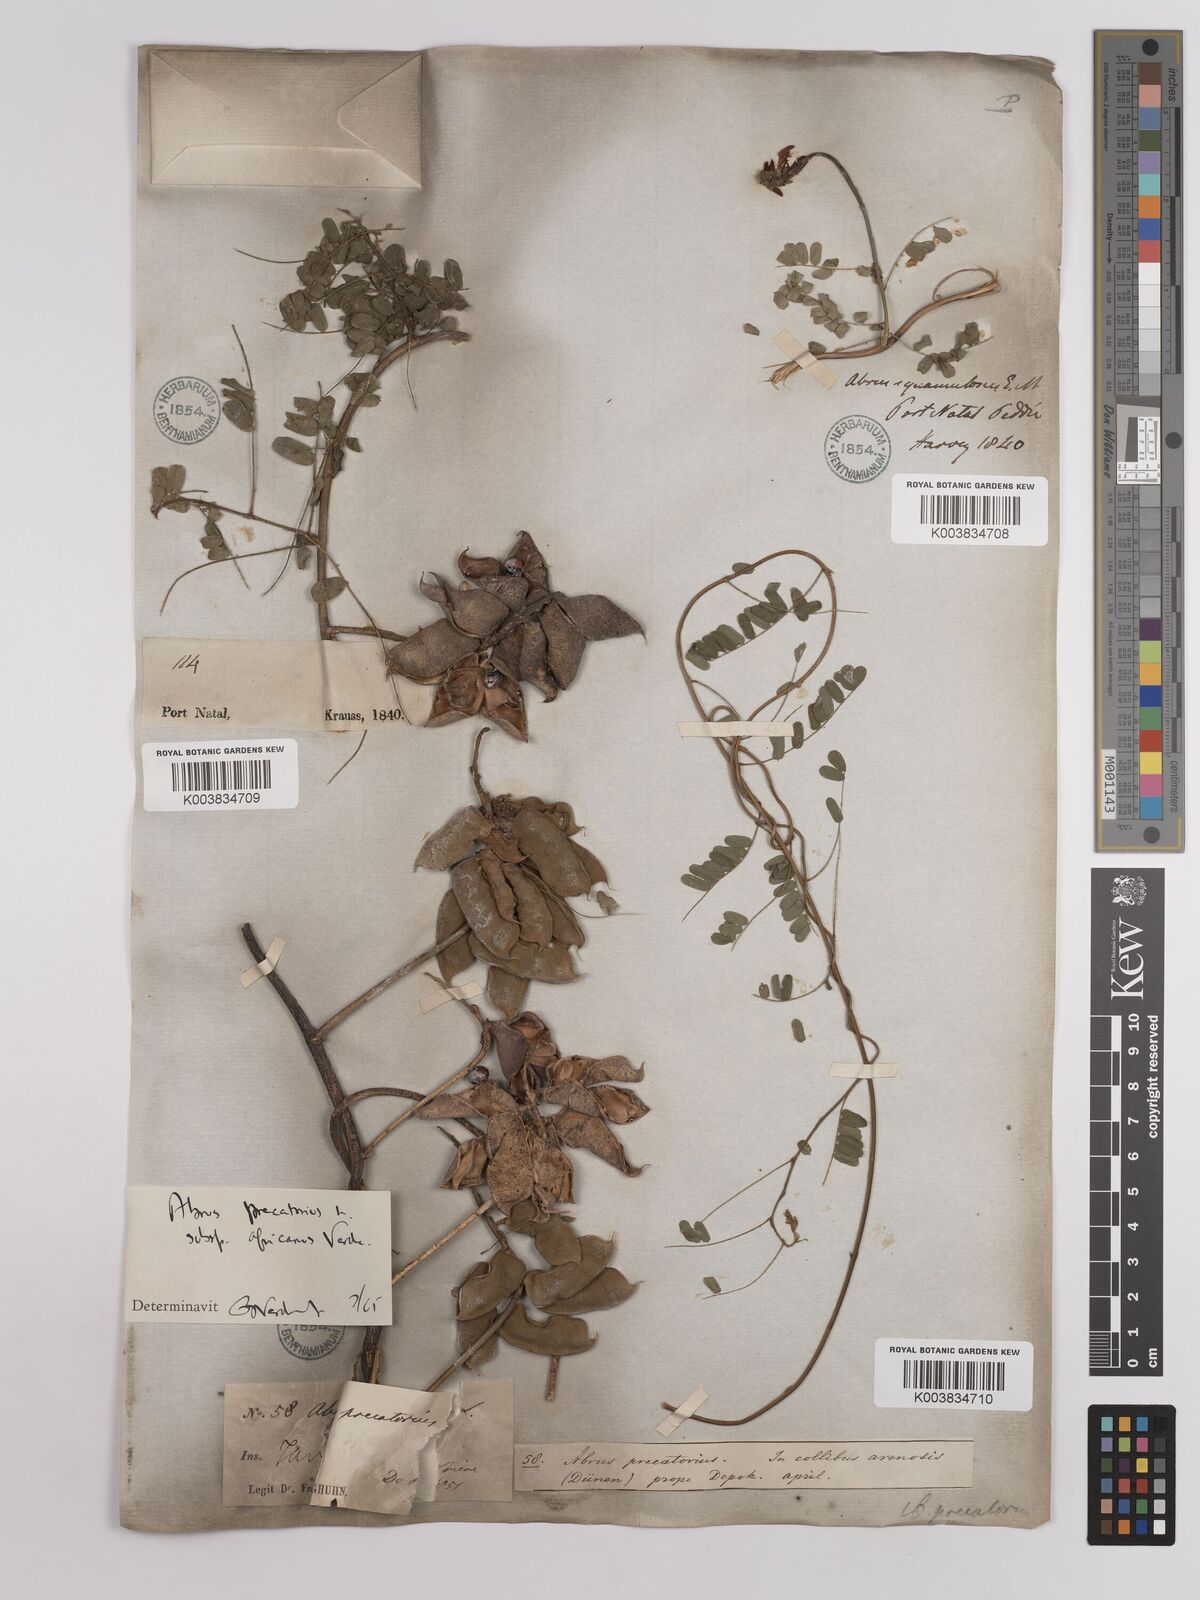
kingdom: Plantae
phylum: Tracheophyta
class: Magnoliopsida
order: Fabales
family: Fabaceae
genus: Abrus
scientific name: Abrus precatorius
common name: Rosarypea
